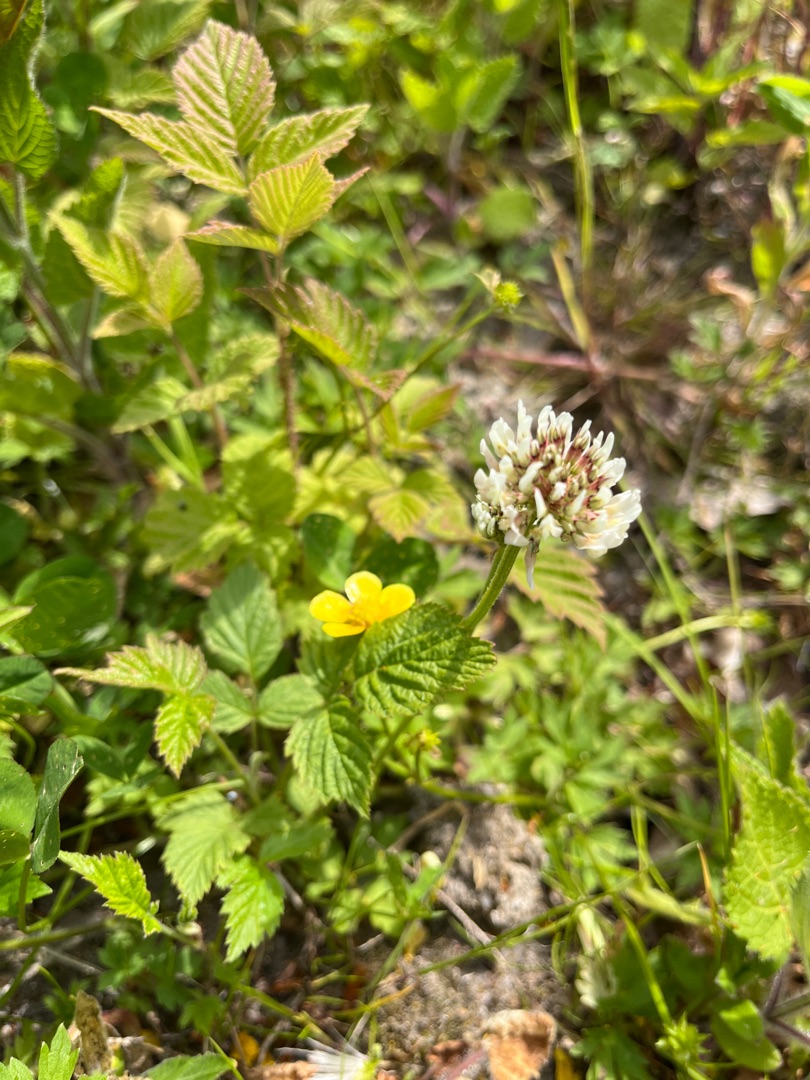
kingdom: Plantae
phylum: Tracheophyta
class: Magnoliopsida
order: Fabales
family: Fabaceae
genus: Trifolium
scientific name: Trifolium repens
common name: Hvid-kløver
